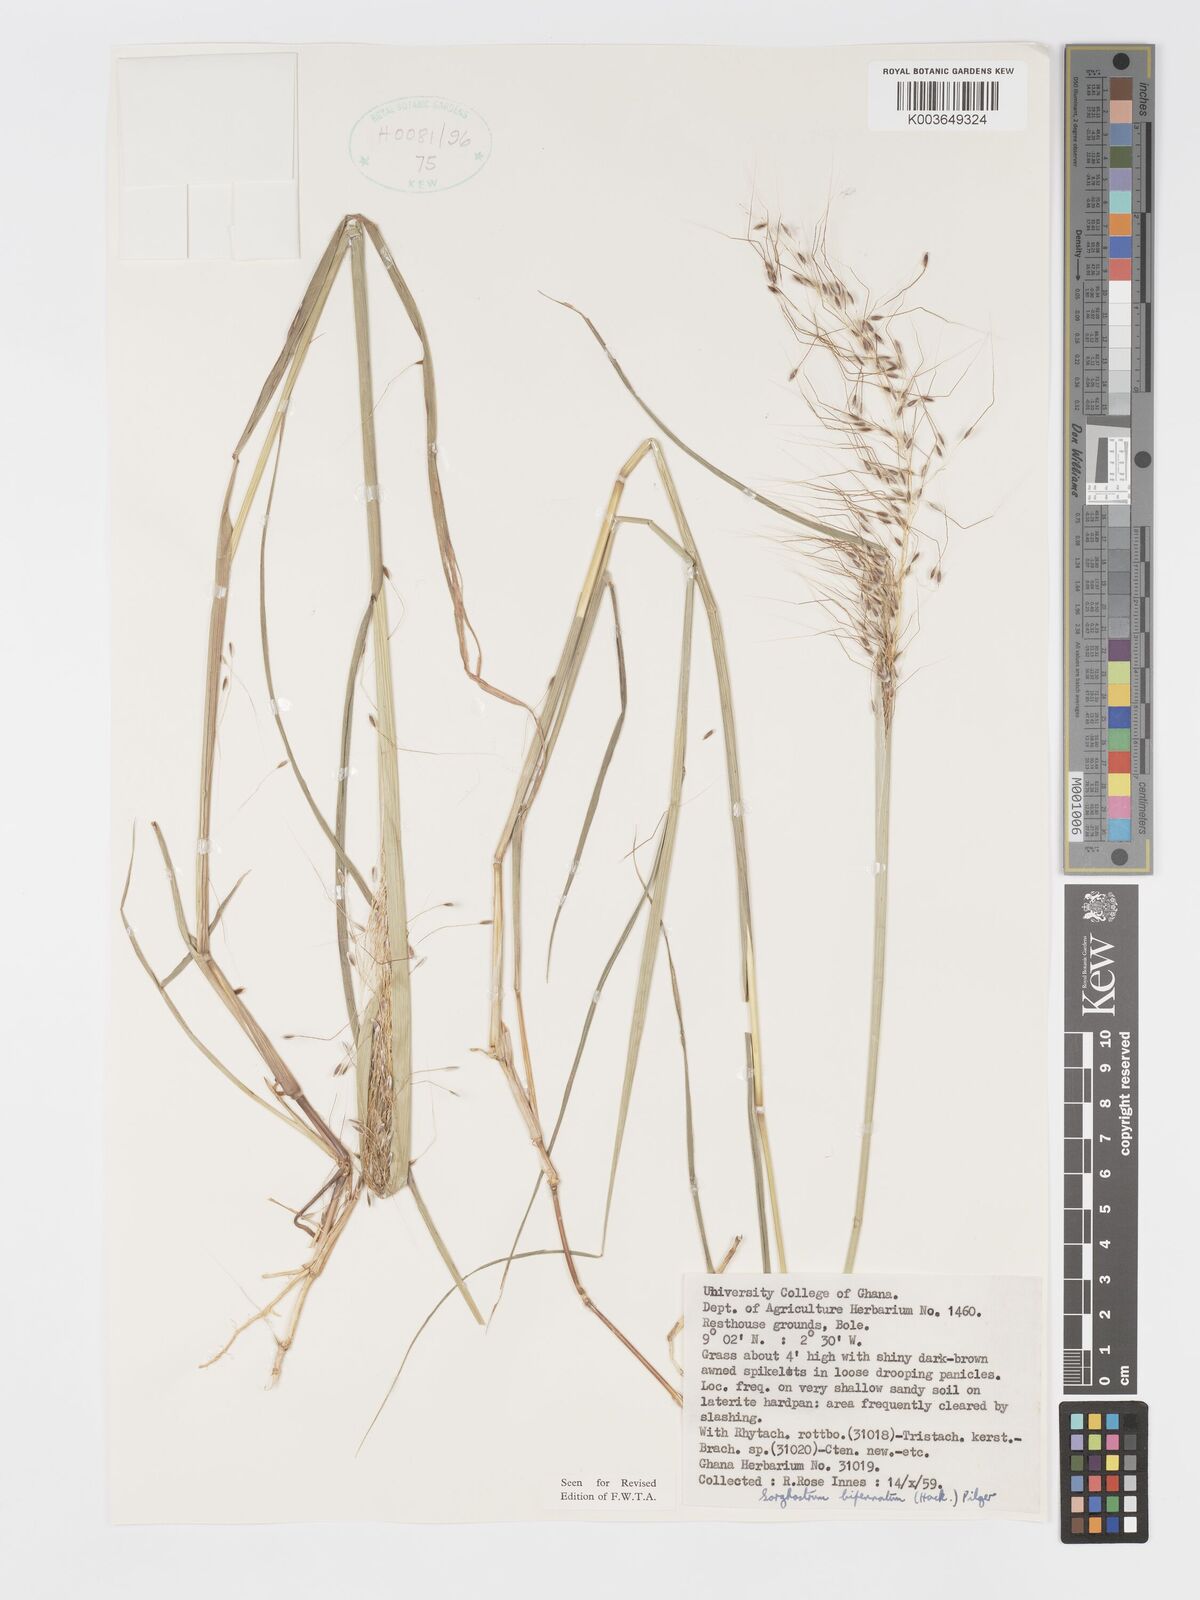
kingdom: Plantae
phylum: Tracheophyta
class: Liliopsida
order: Poales
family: Poaceae
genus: Sorghastrum
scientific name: Sorghastrum incompletum
